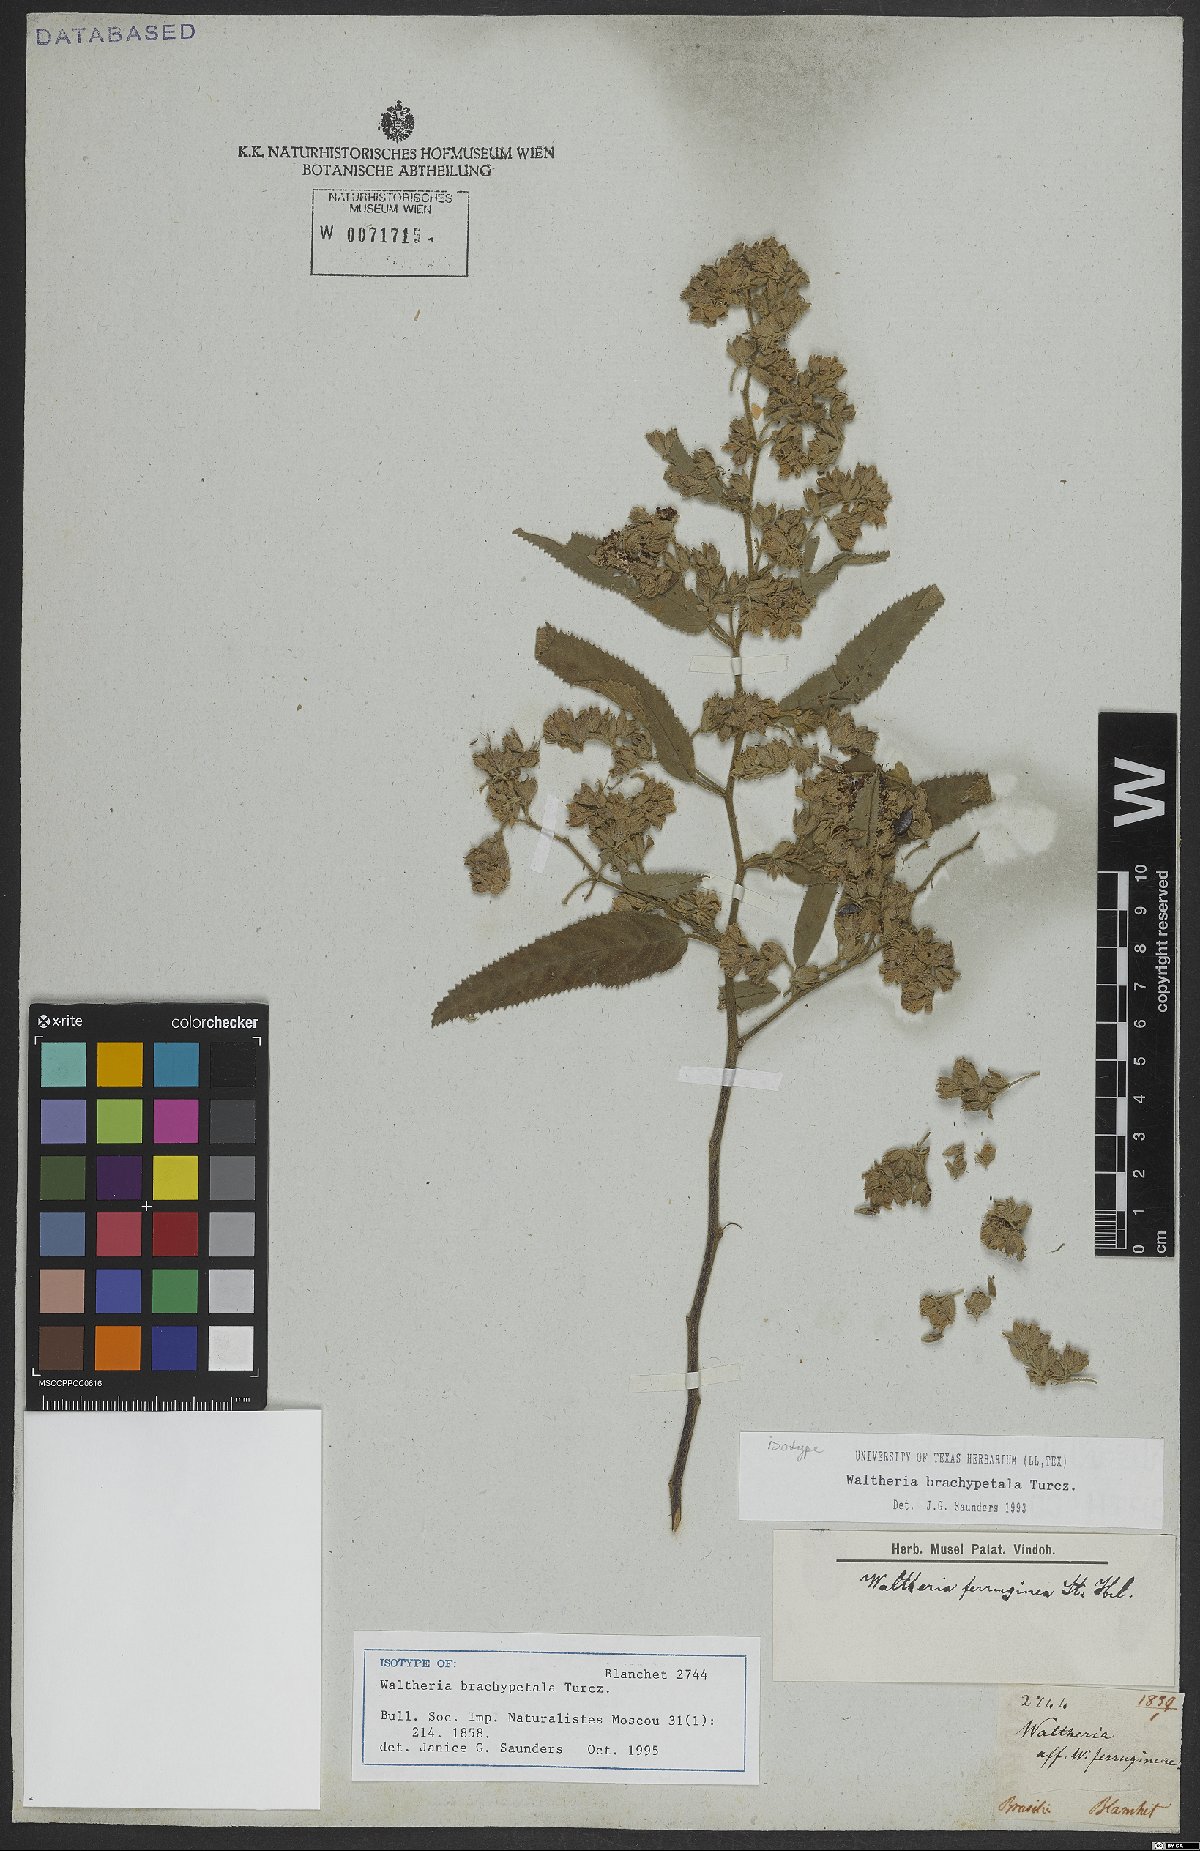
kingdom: Plantae
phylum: Tracheophyta
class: Magnoliopsida
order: Malvales
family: Malvaceae
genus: Waltheria
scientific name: Waltheria brachypetala
